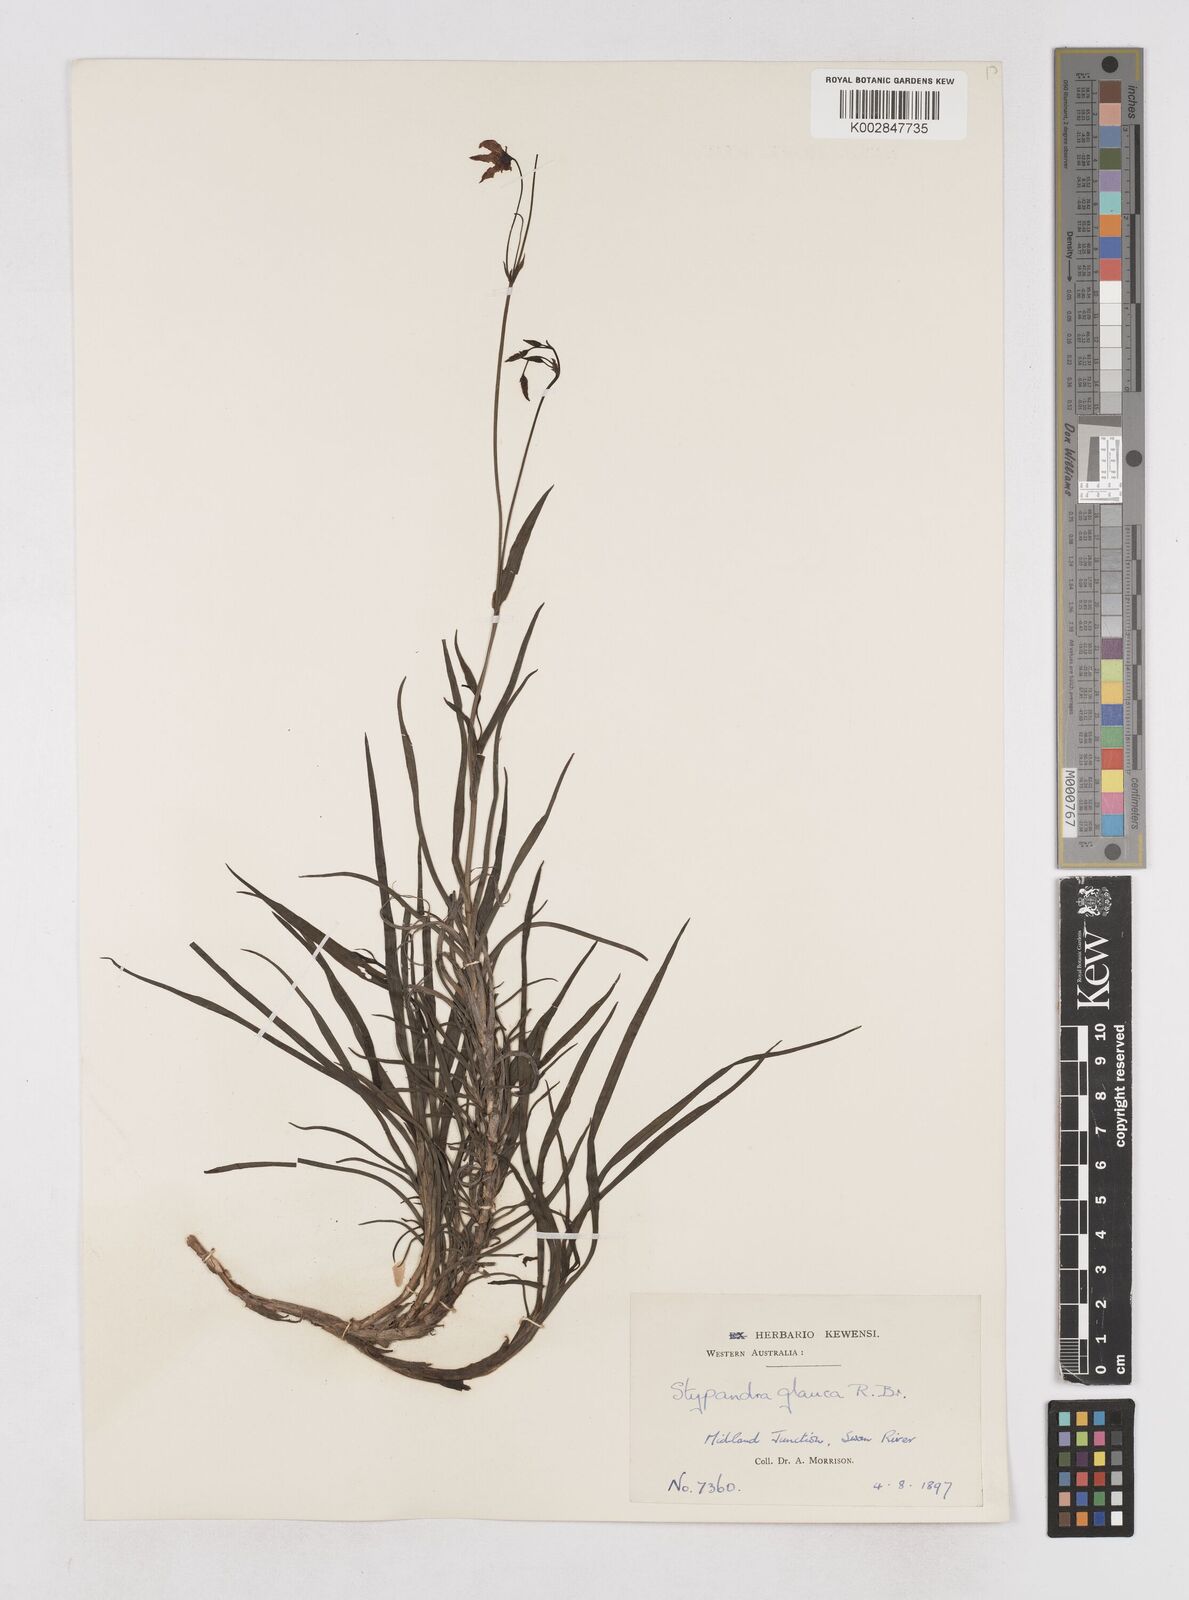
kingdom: Plantae
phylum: Tracheophyta
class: Liliopsida
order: Asparagales
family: Asphodelaceae
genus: Stypandra
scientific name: Stypandra glauca
